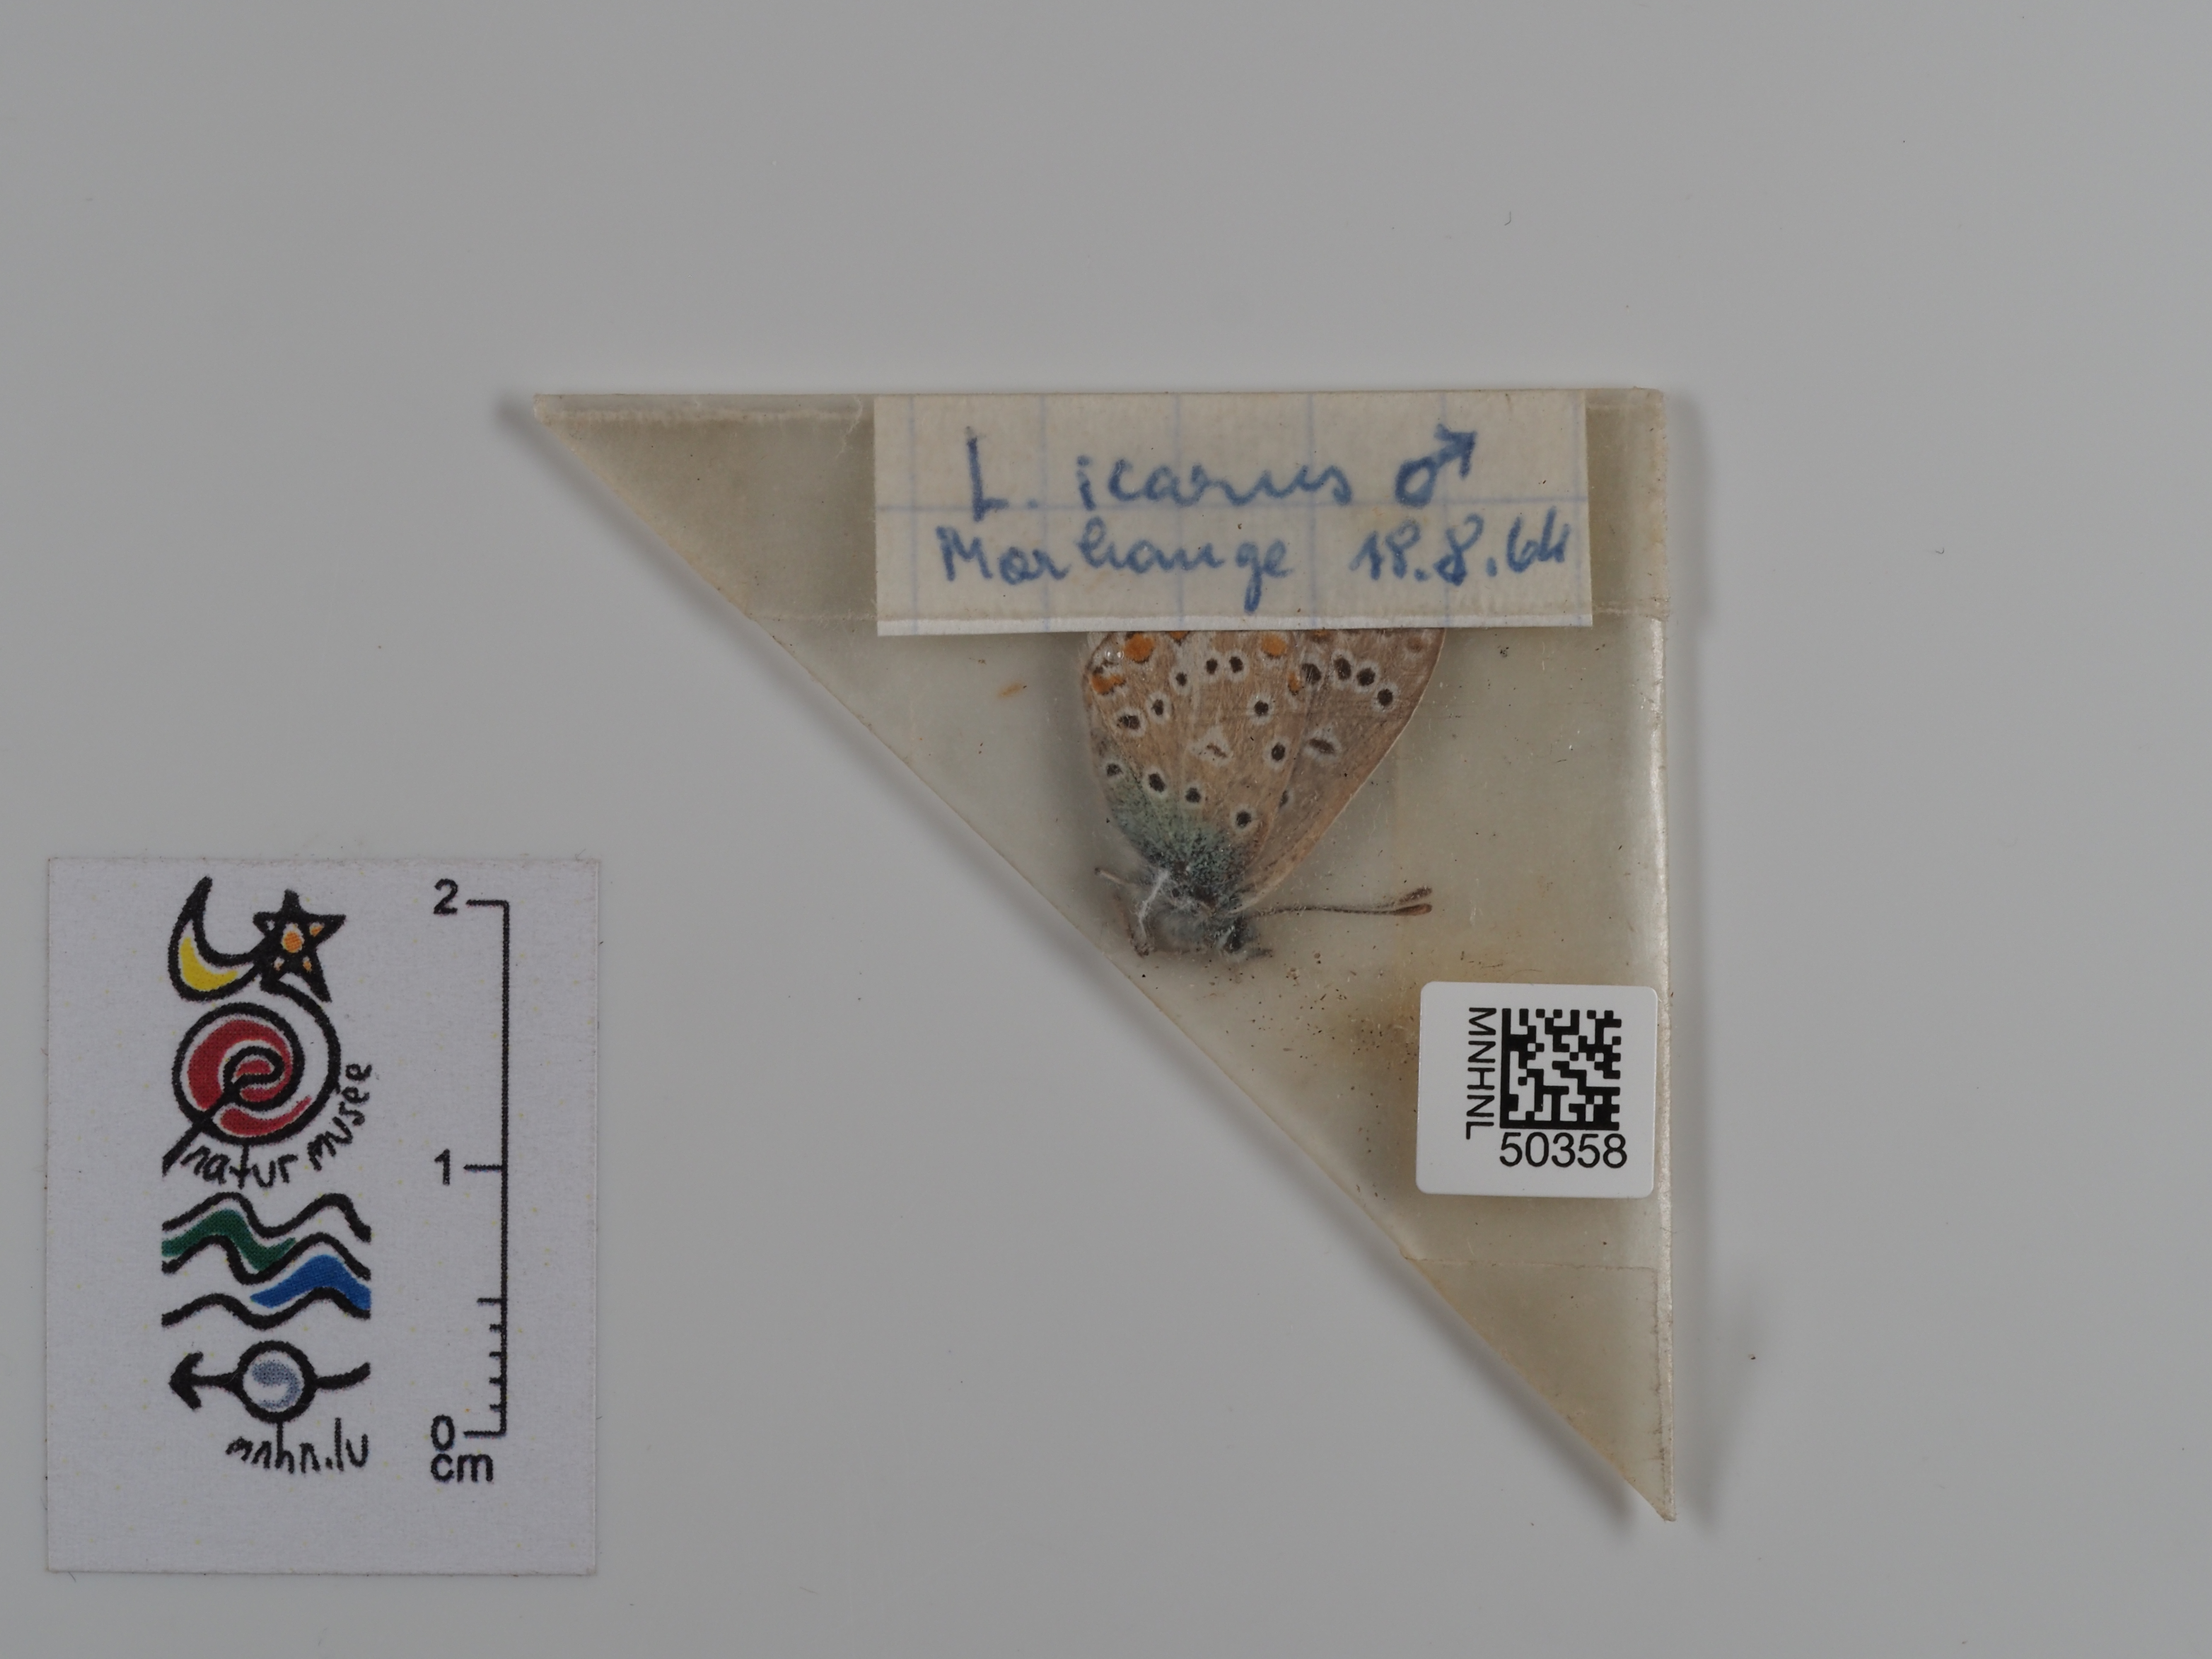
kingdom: Animalia
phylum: Arthropoda
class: Insecta
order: Lepidoptera
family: Lycaenidae
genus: Polyommatus
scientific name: Polyommatus icarus
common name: Common blue
